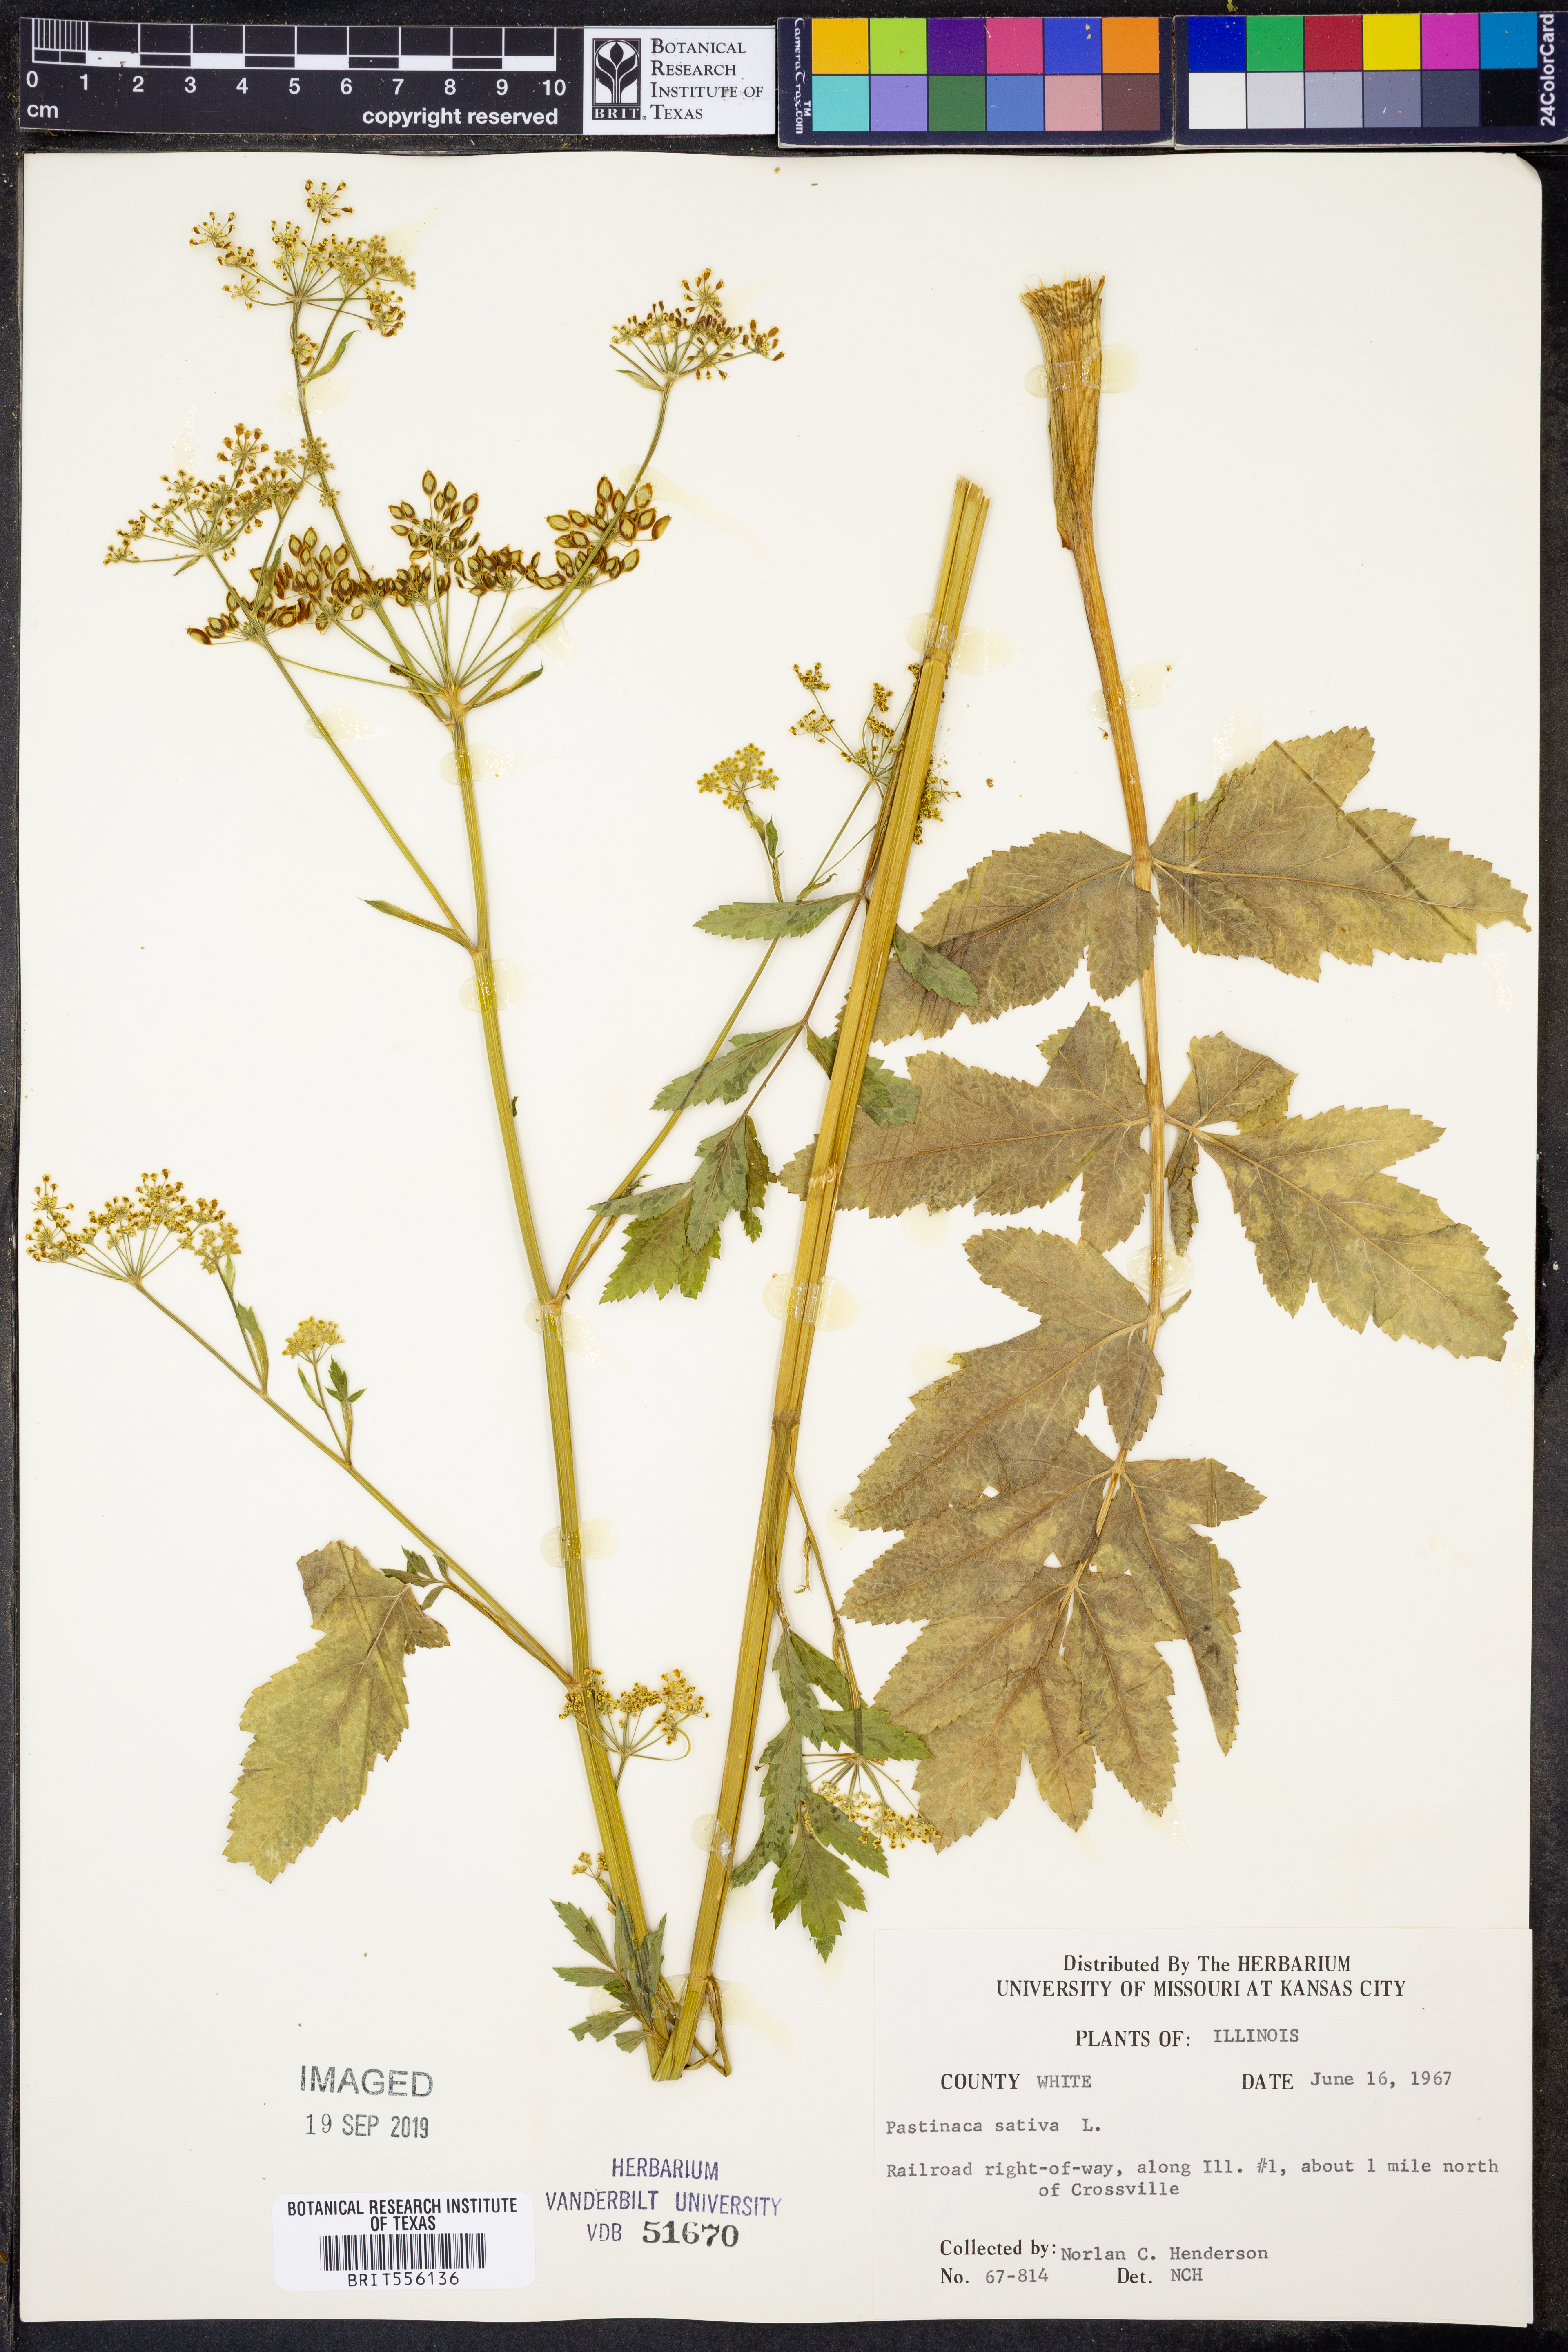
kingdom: Plantae
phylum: Tracheophyta
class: Magnoliopsida
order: Apiales
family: Apiaceae
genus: Pastinaca
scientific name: Pastinaca sativa
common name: Wild parsnip
